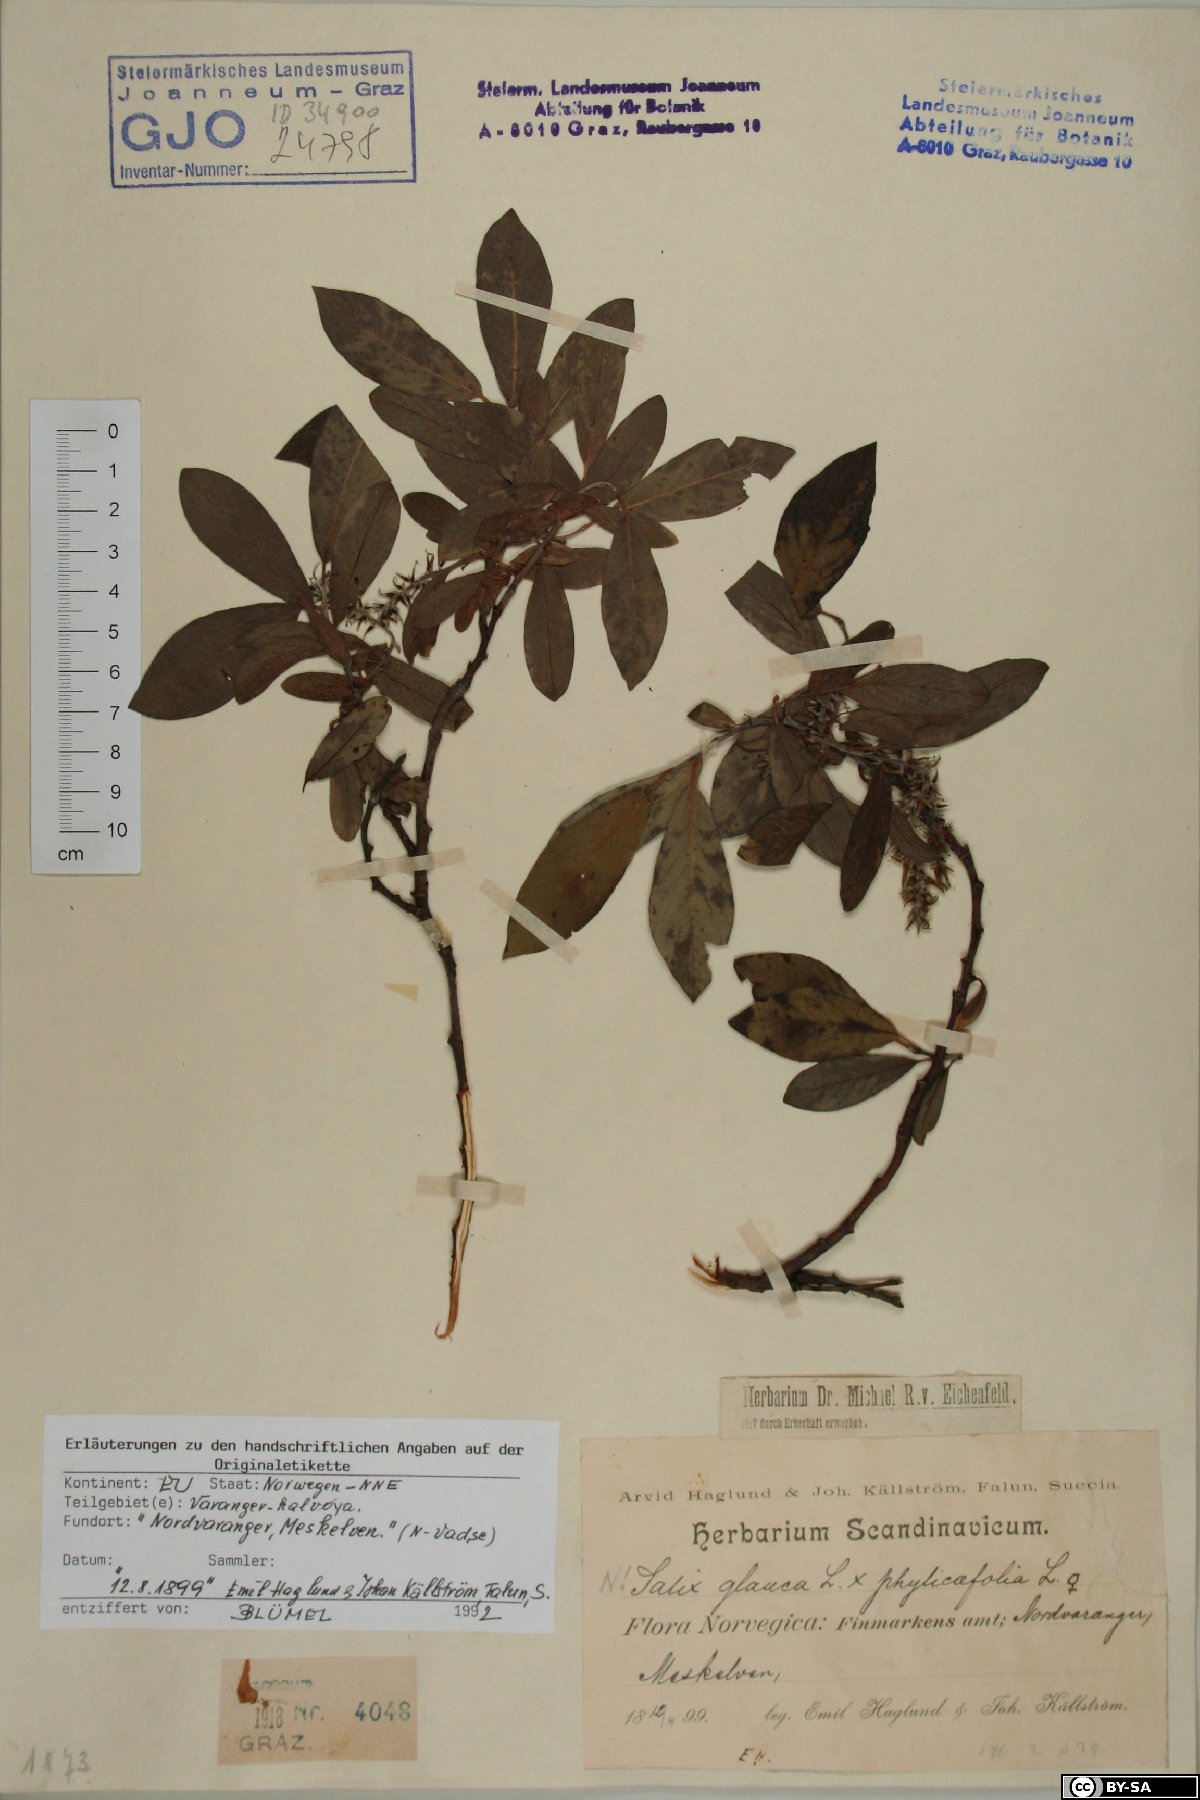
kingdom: Plantae
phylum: Tracheophyta
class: Magnoliopsida
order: Malpighiales
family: Salicaceae
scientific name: Salicaceae
